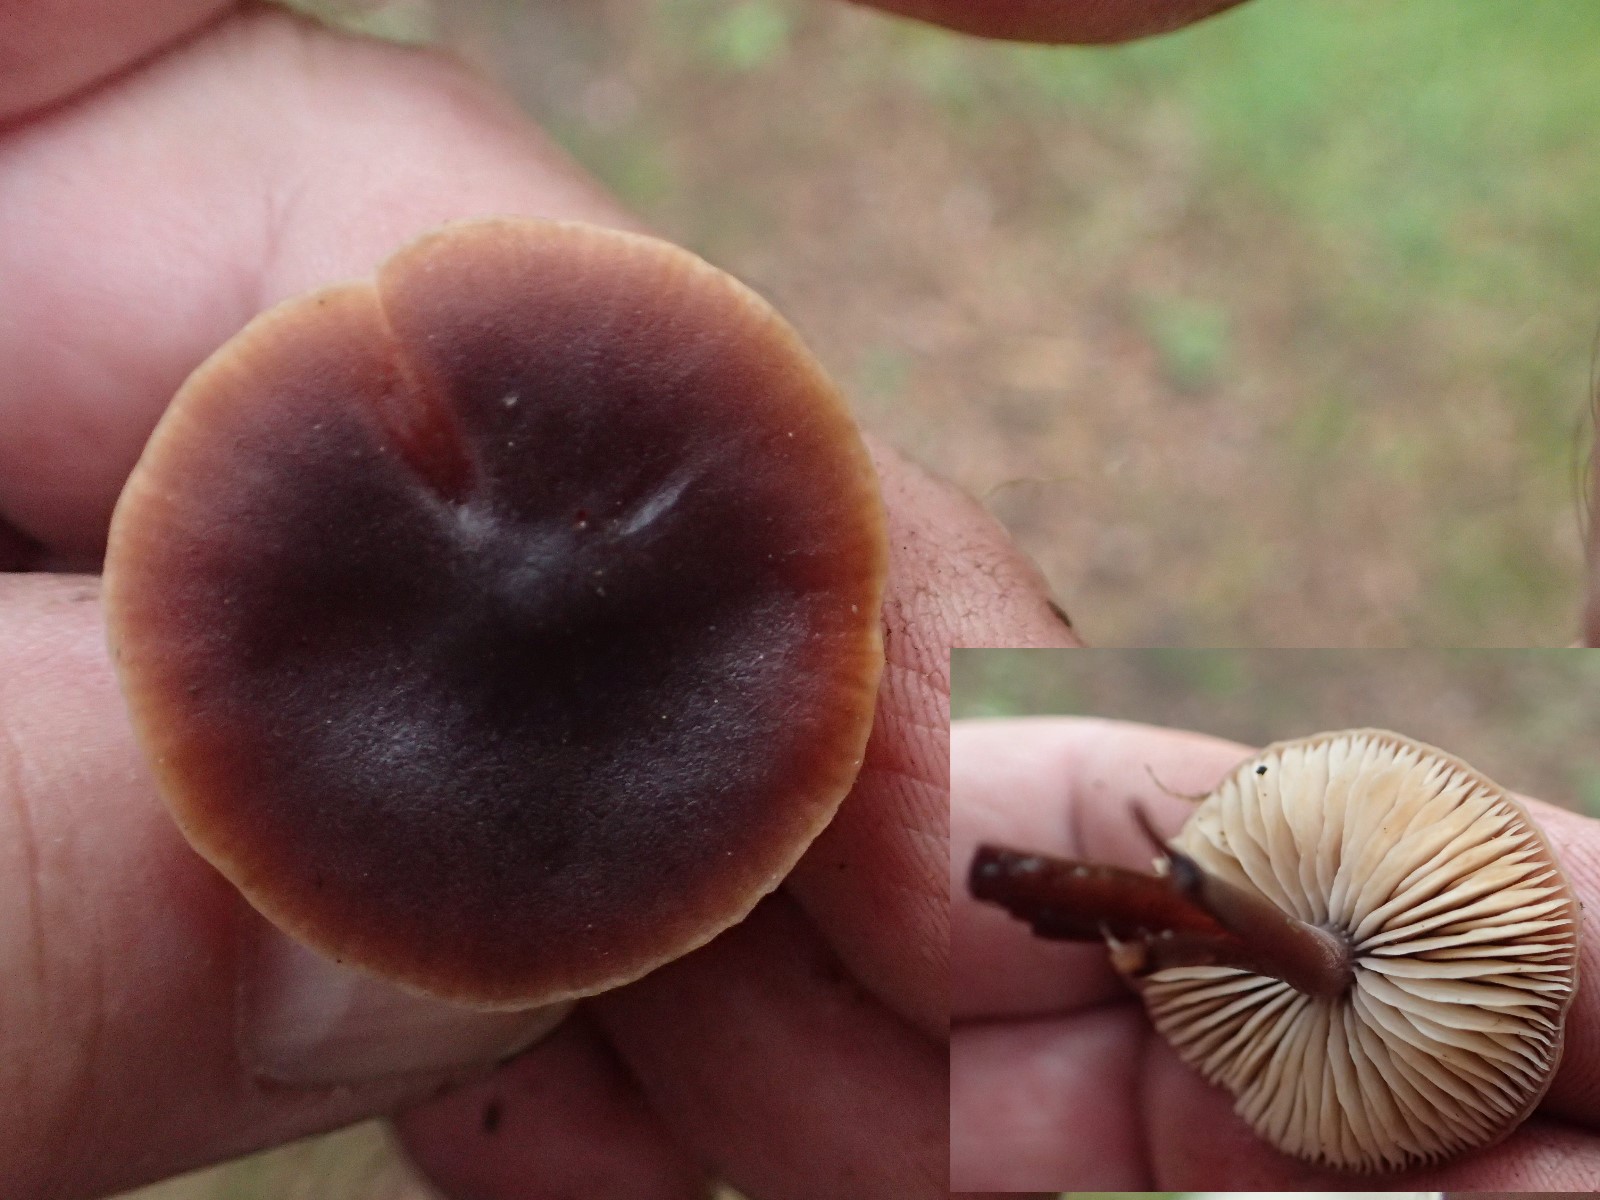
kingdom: Fungi
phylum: Basidiomycota
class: Agaricomycetes
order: Agaricales
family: Macrocystidiaceae
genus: Macrocystidia
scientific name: Macrocystidia cucumis
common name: agurkehat
